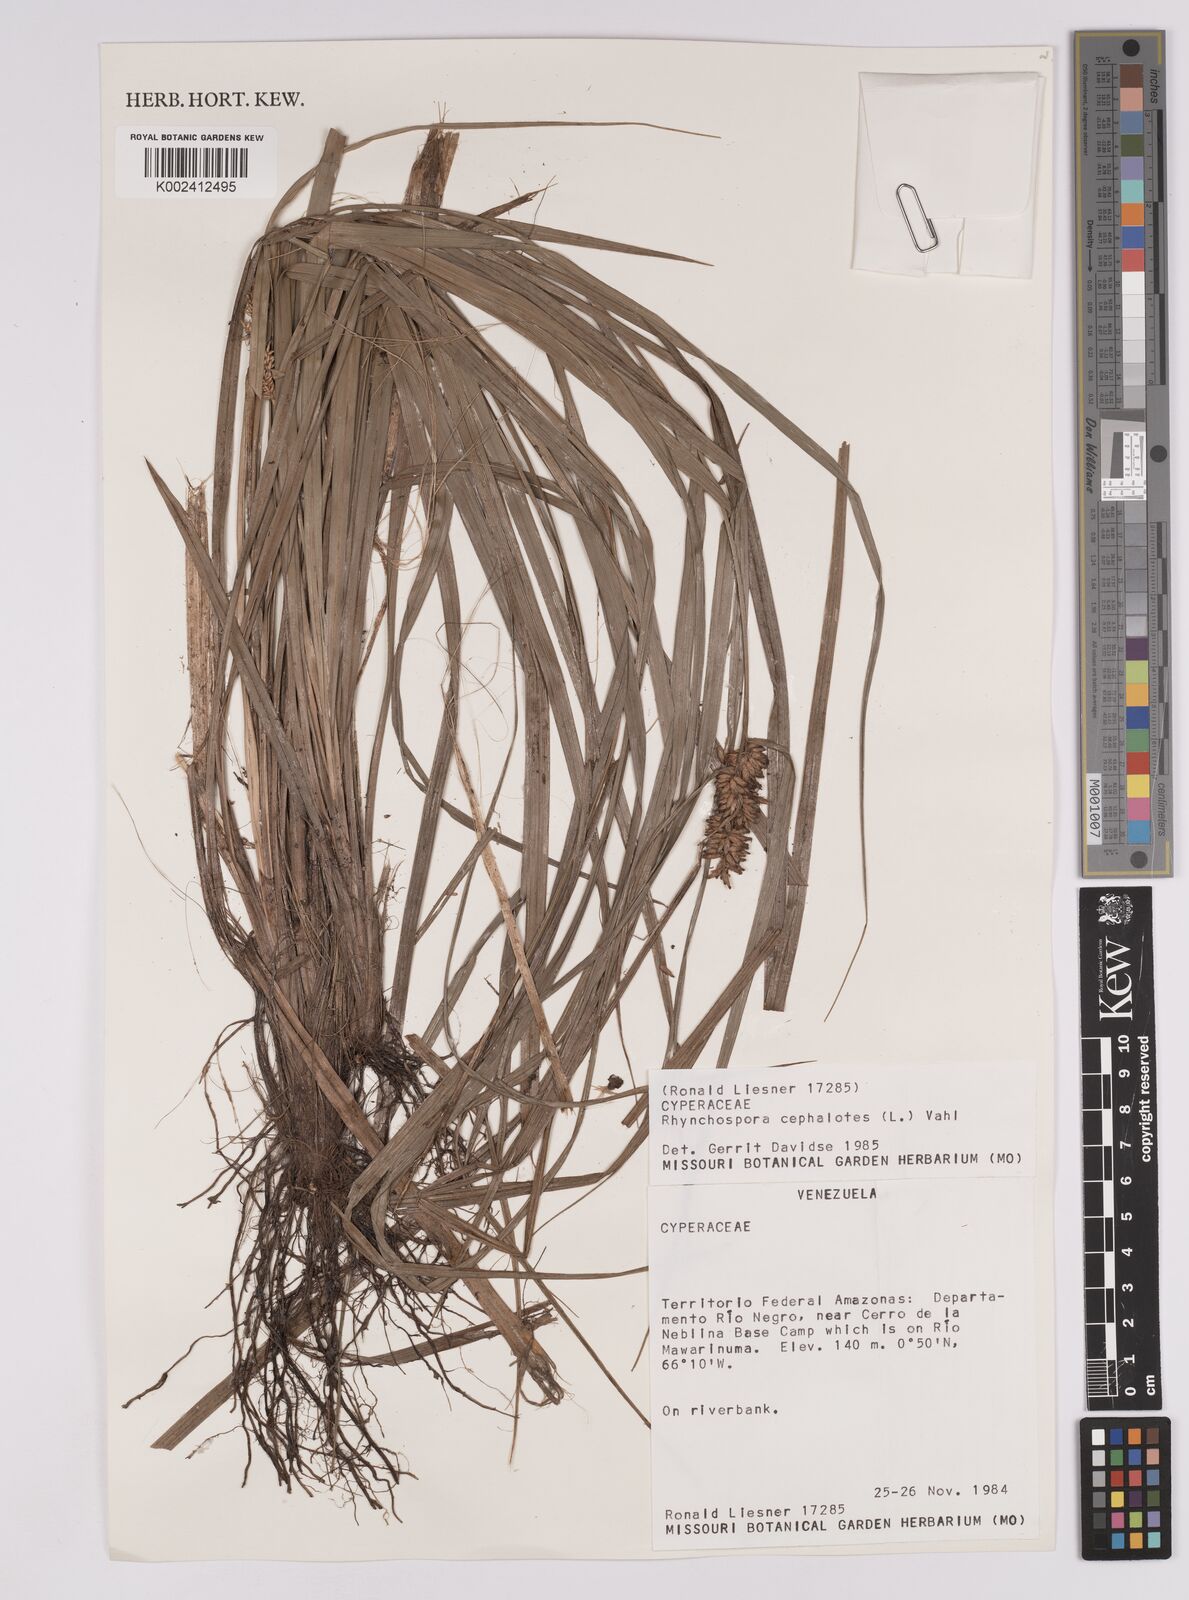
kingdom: Plantae
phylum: Tracheophyta
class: Liliopsida
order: Poales
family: Cyperaceae
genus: Rhynchospora
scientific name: Rhynchospora cephalotes
